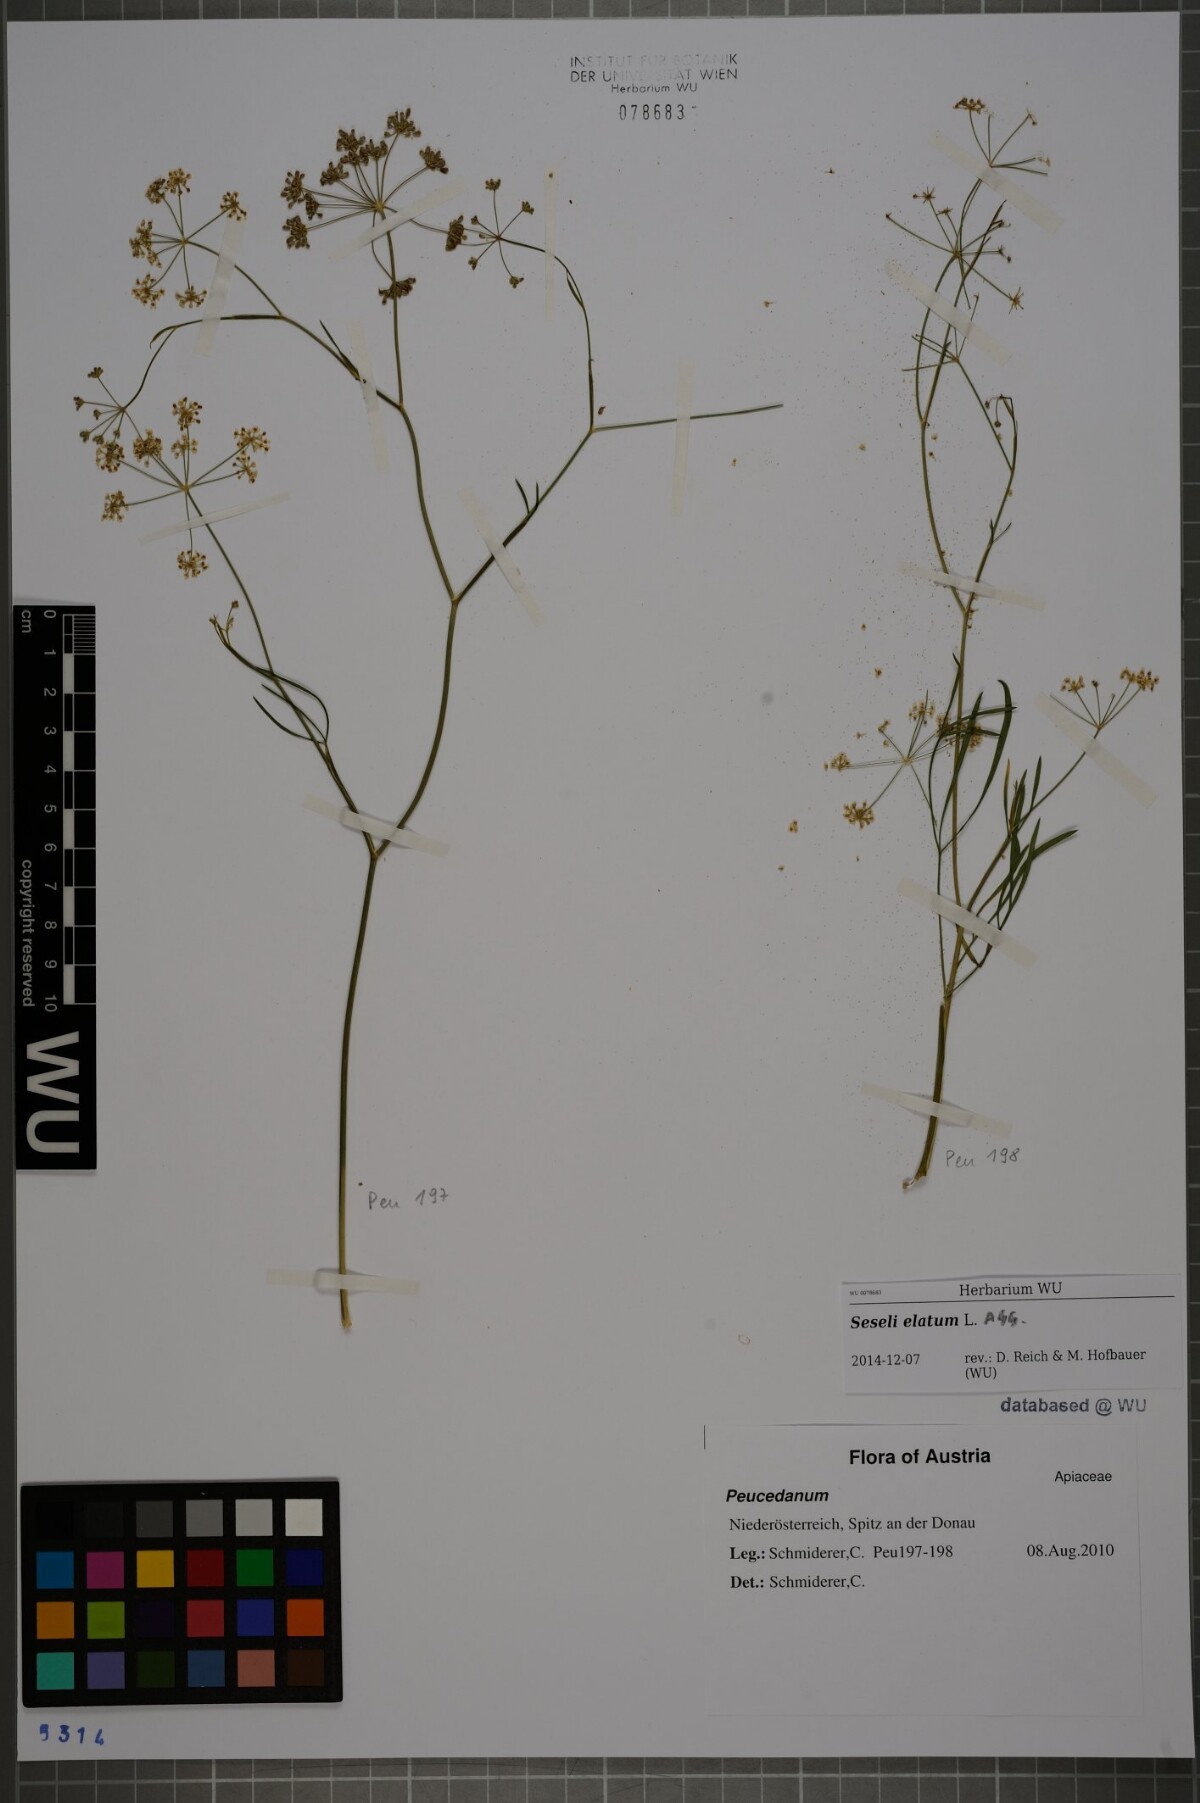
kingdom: Plantae
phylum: Tracheophyta
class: Magnoliopsida
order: Apiales
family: Apiaceae
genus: Seseli
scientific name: Seseli longifolium
